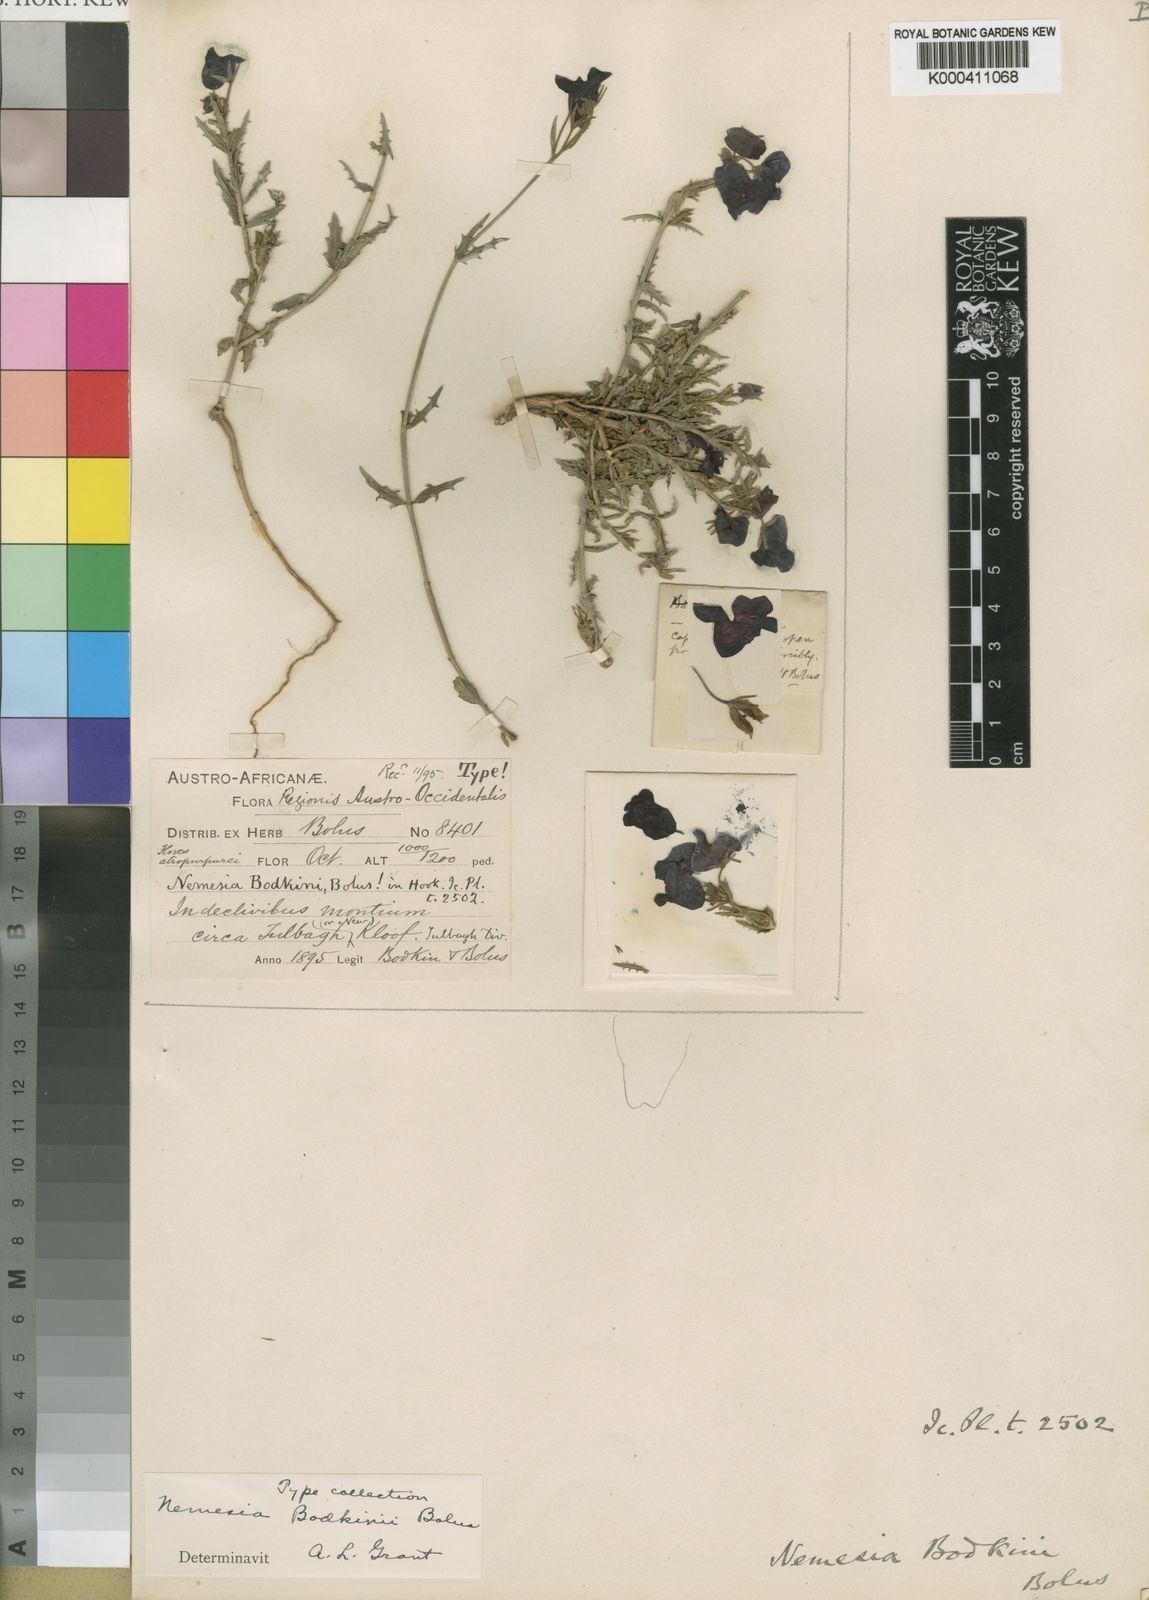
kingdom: Plantae
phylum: Tracheophyta
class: Magnoliopsida
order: Lamiales
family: Scrophulariaceae
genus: Nemesia
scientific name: Nemesia bodkinii
